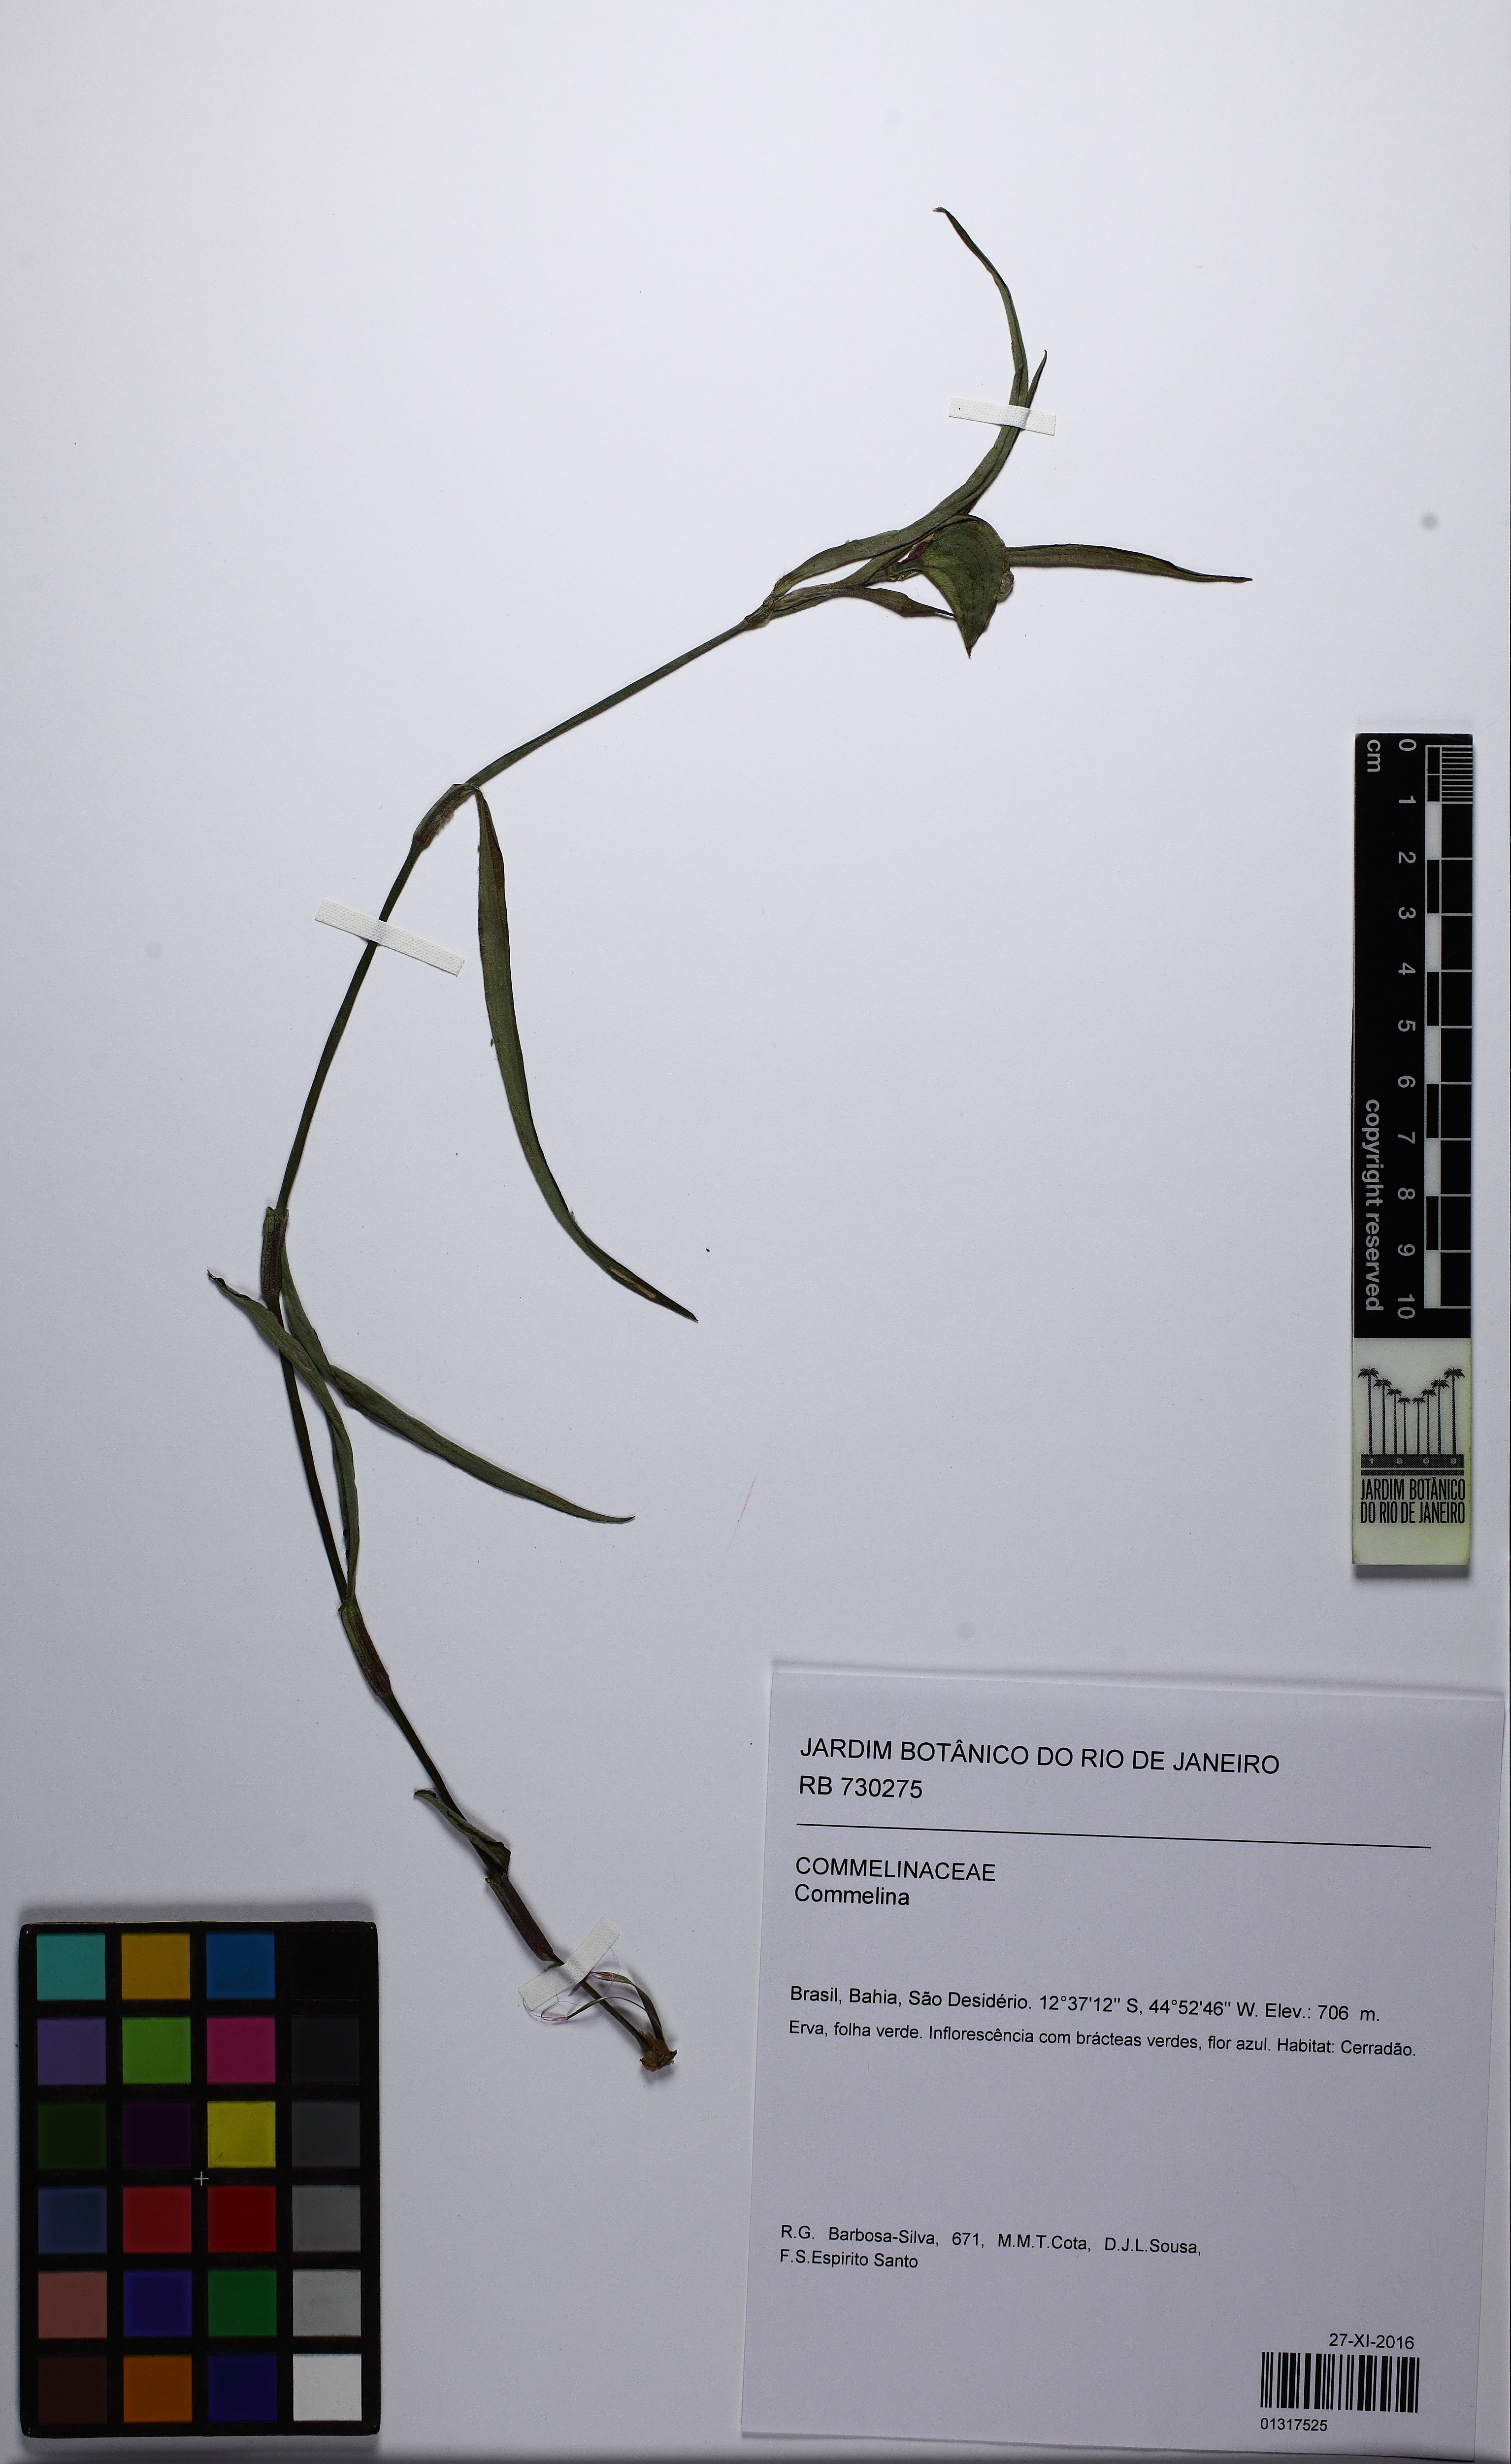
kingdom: Plantae
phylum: Tracheophyta
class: Liliopsida
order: Commelinales
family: Commelinaceae
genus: Commelina
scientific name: Commelina erecta
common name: Blousel blommetjie
